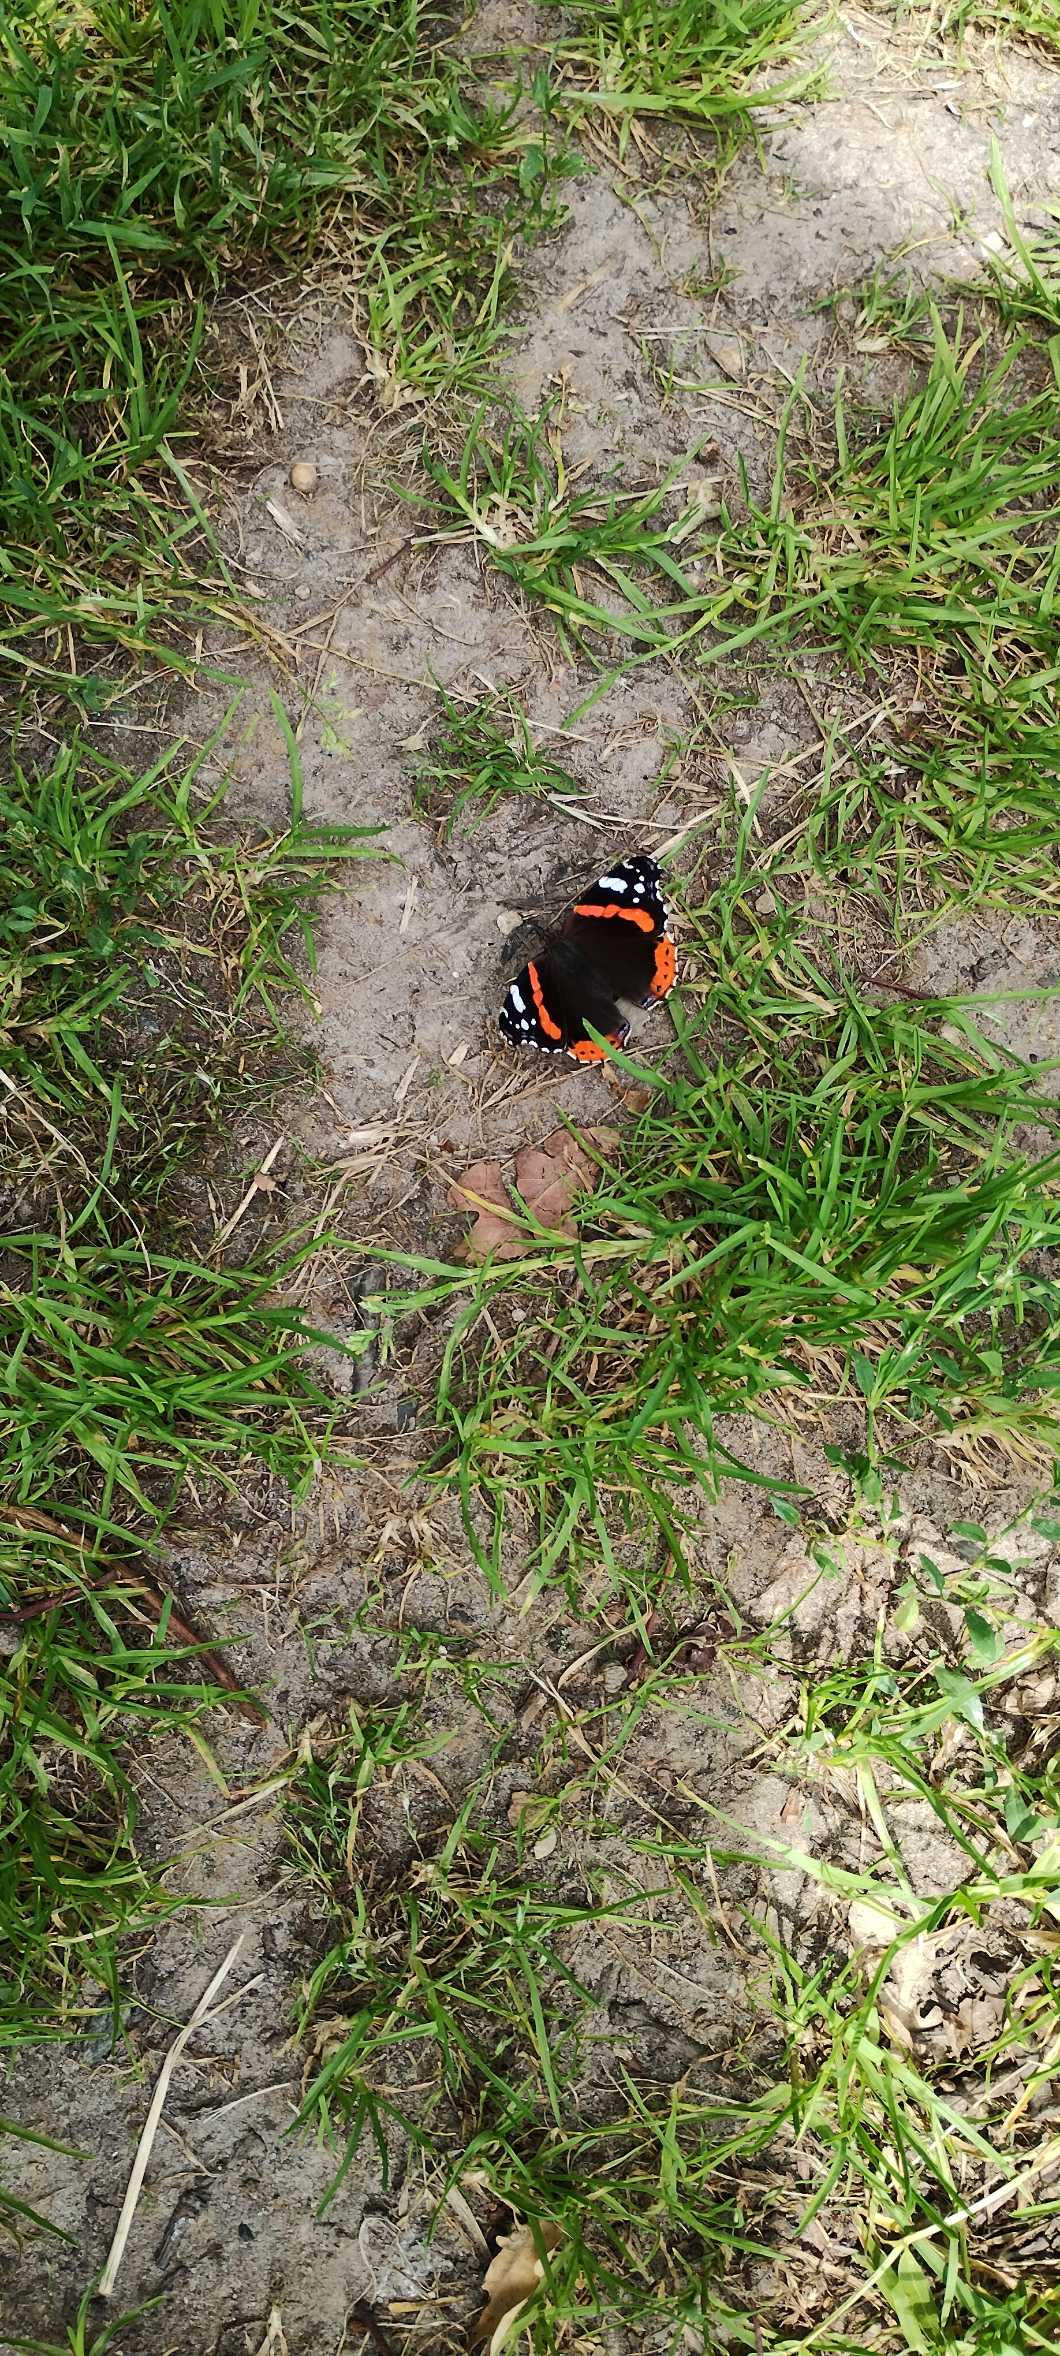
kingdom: Animalia
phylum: Arthropoda
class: Insecta
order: Lepidoptera
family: Nymphalidae
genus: Vanessa
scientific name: Vanessa atalanta
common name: Admiral
